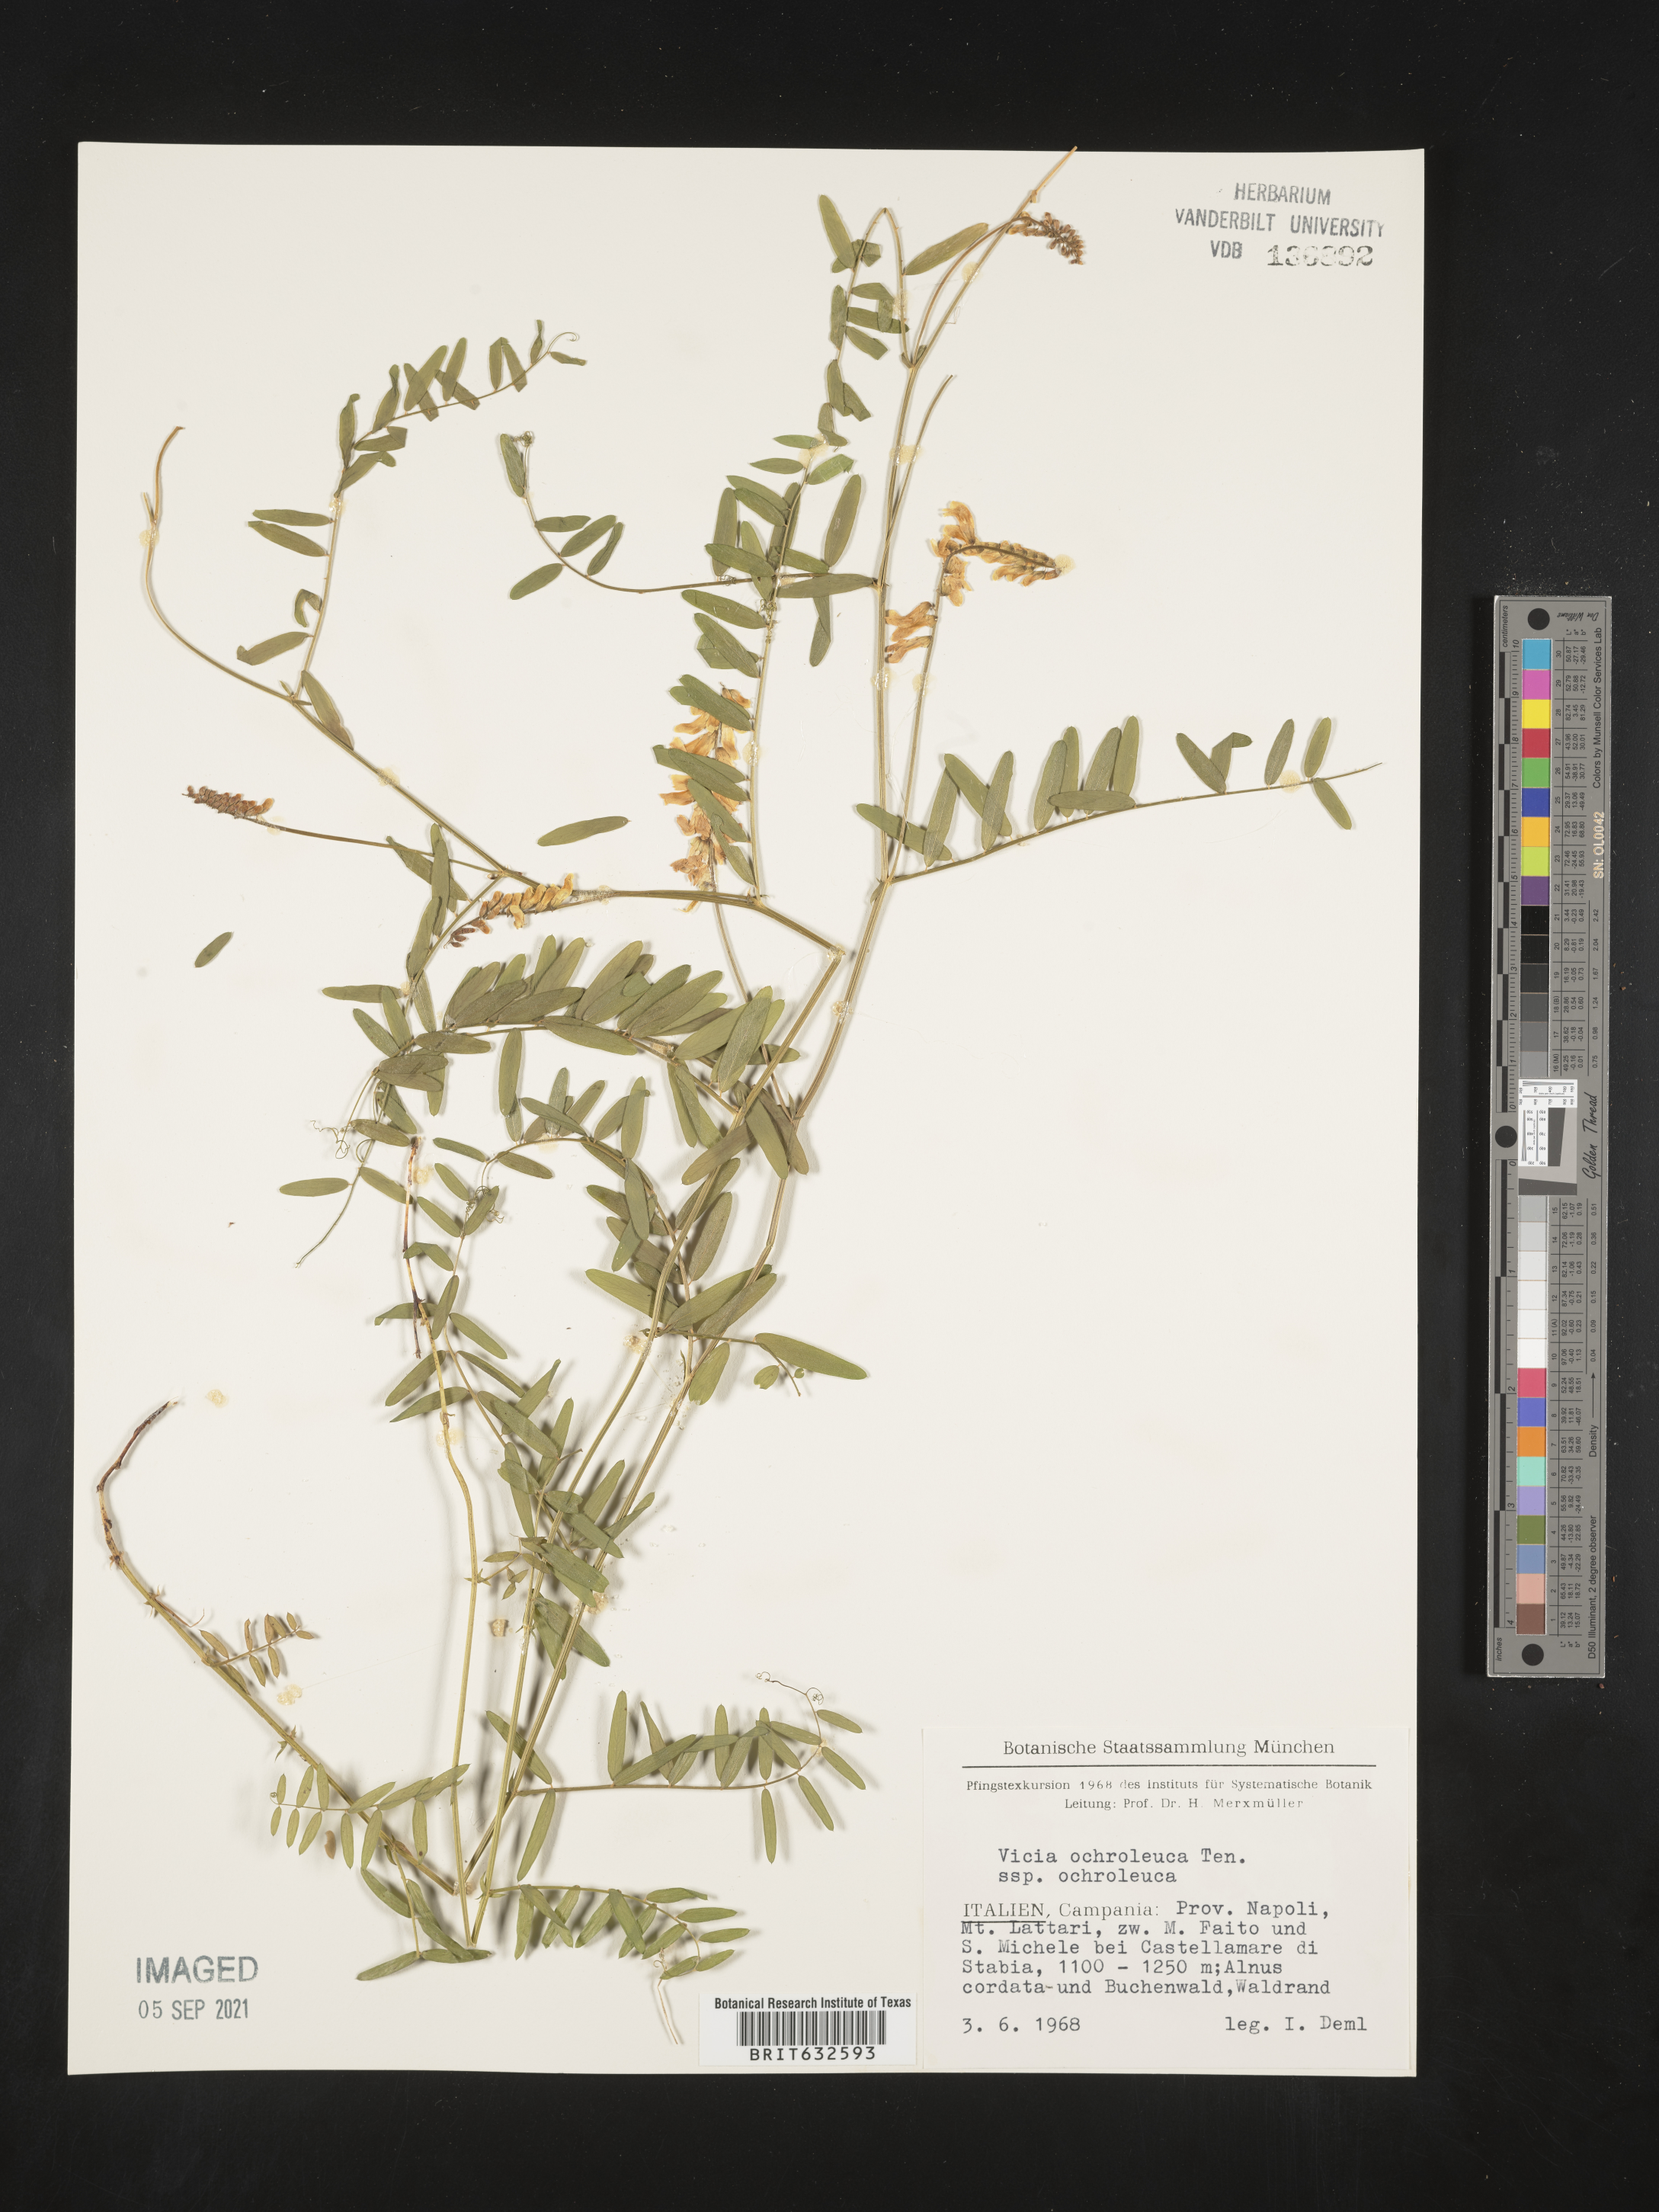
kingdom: Plantae
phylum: Tracheophyta
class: Magnoliopsida
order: Fabales
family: Fabaceae
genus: Vicia
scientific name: Vicia
